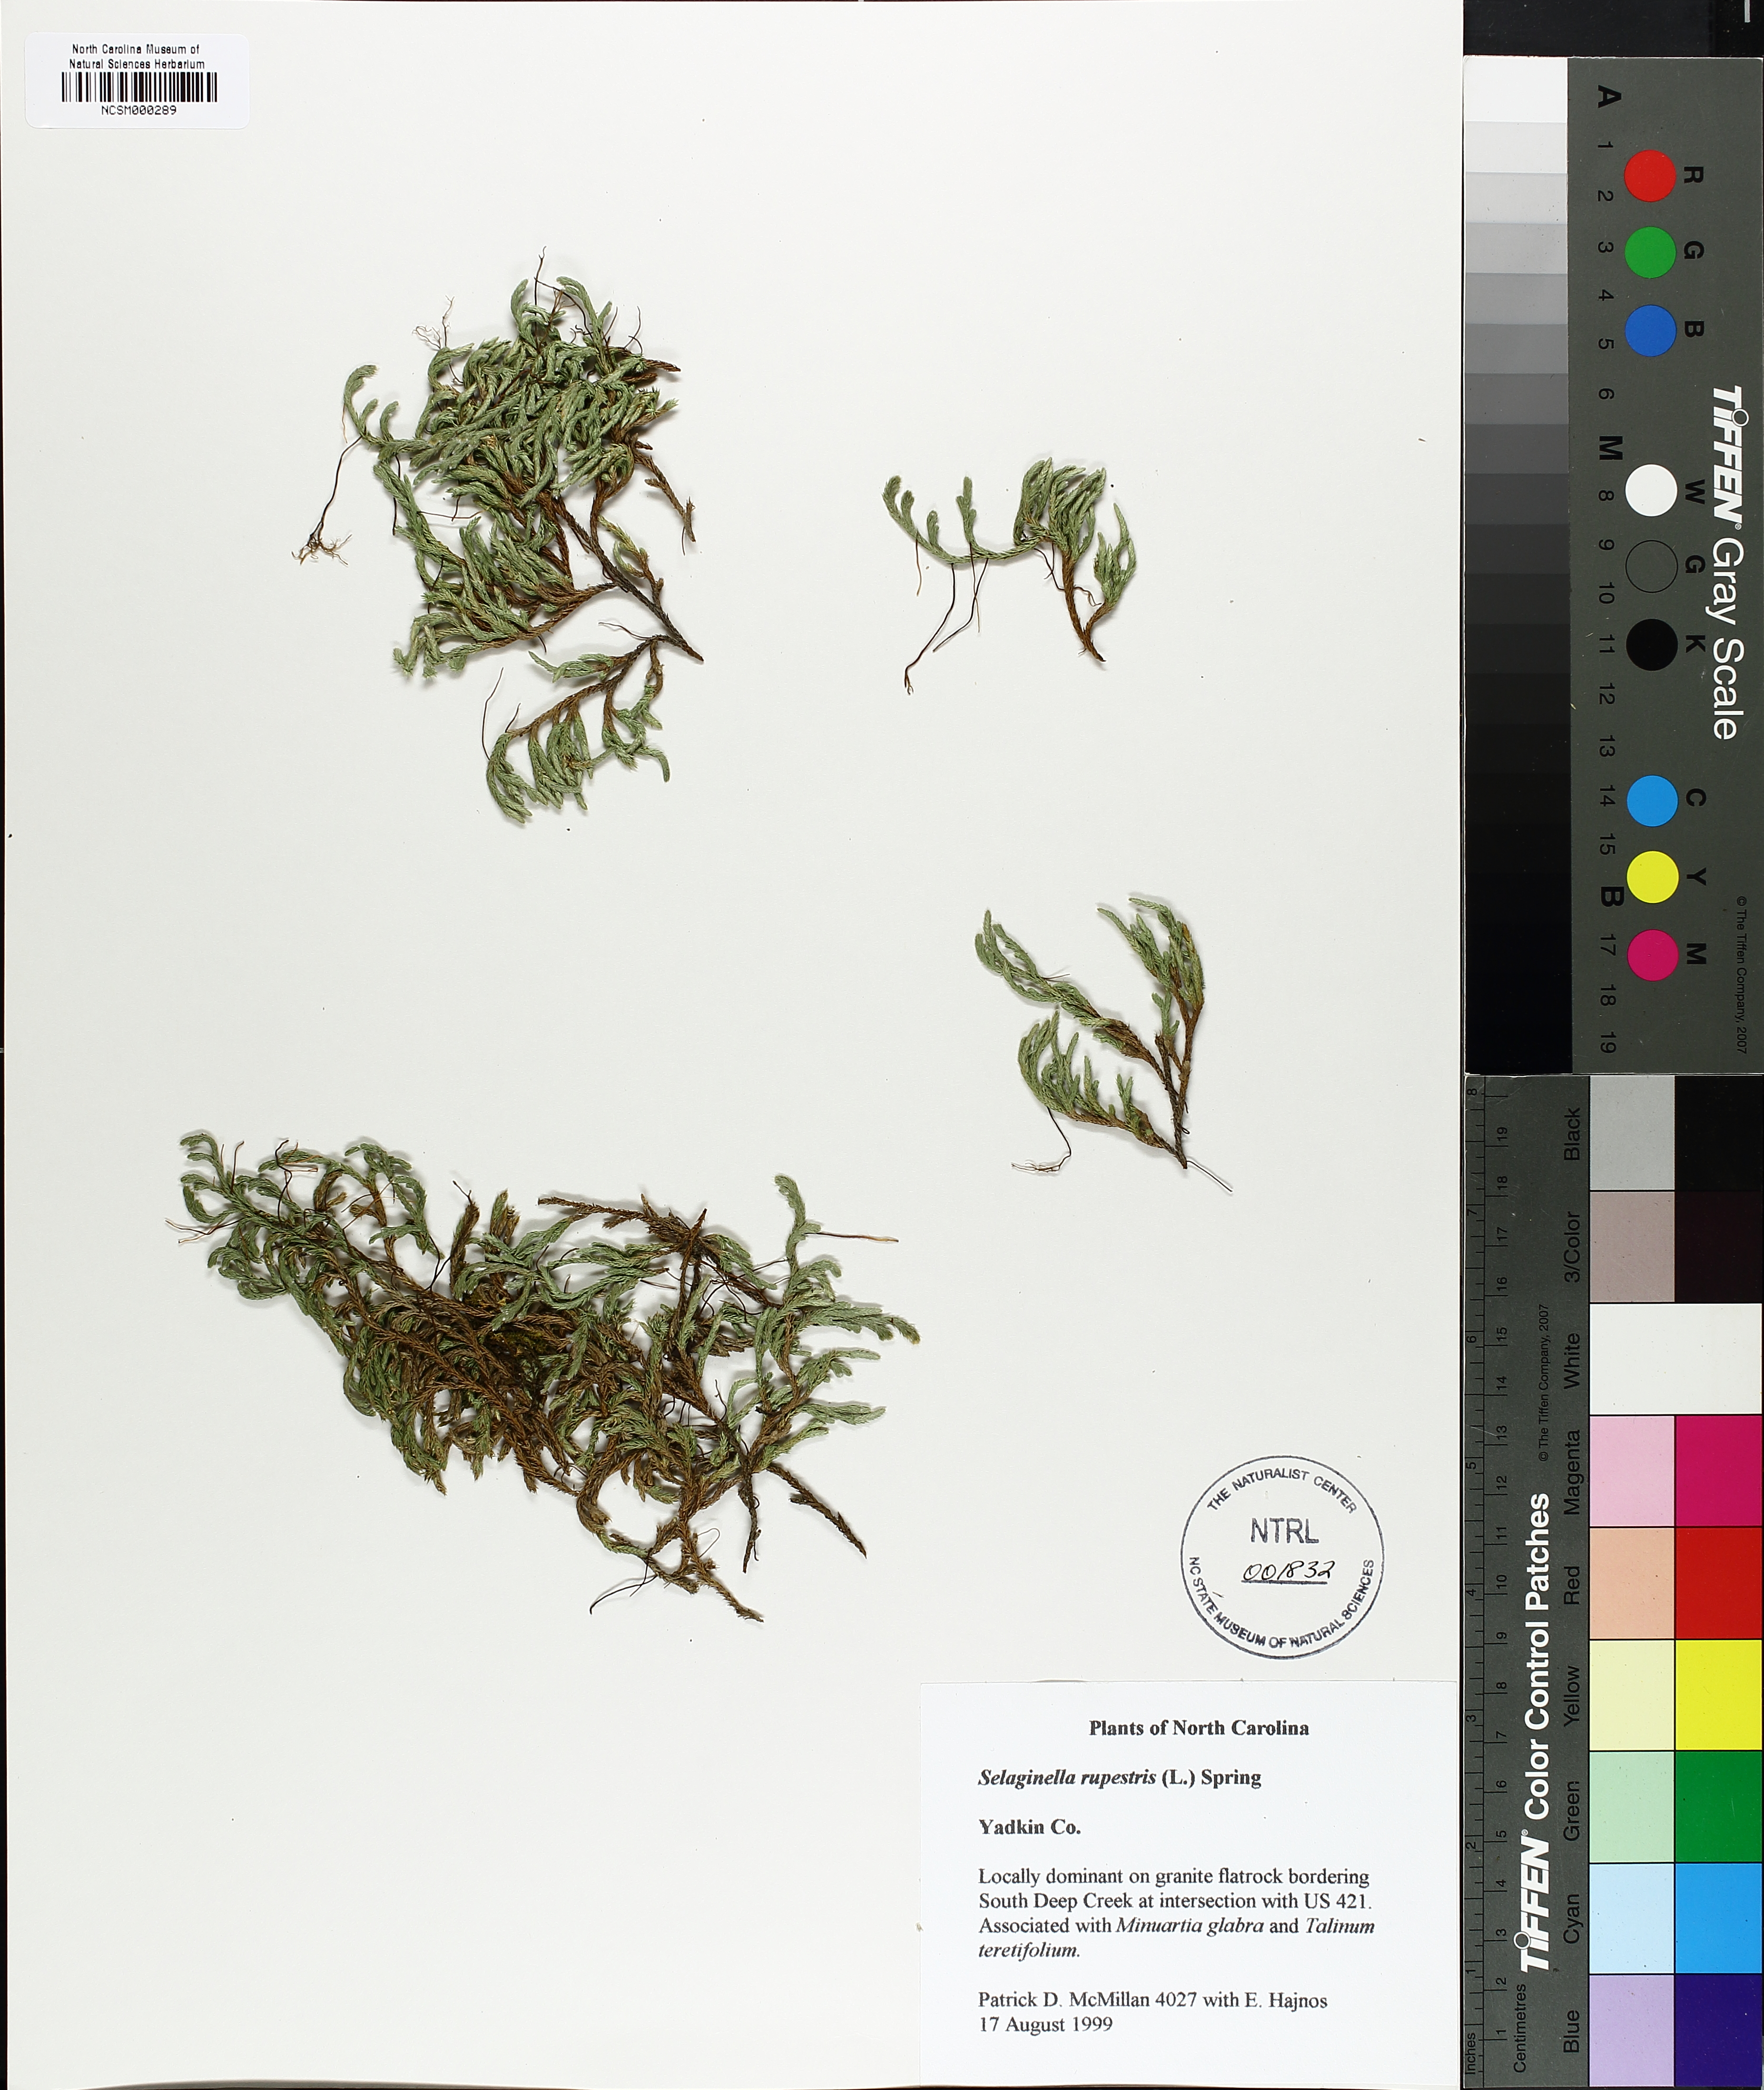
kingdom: Plantae
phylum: Tracheophyta
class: Lycopodiopsida
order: Selaginellales
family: Selaginellaceae
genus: Selaginella
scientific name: Selaginella rupestris
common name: Dwarf spikemoss
